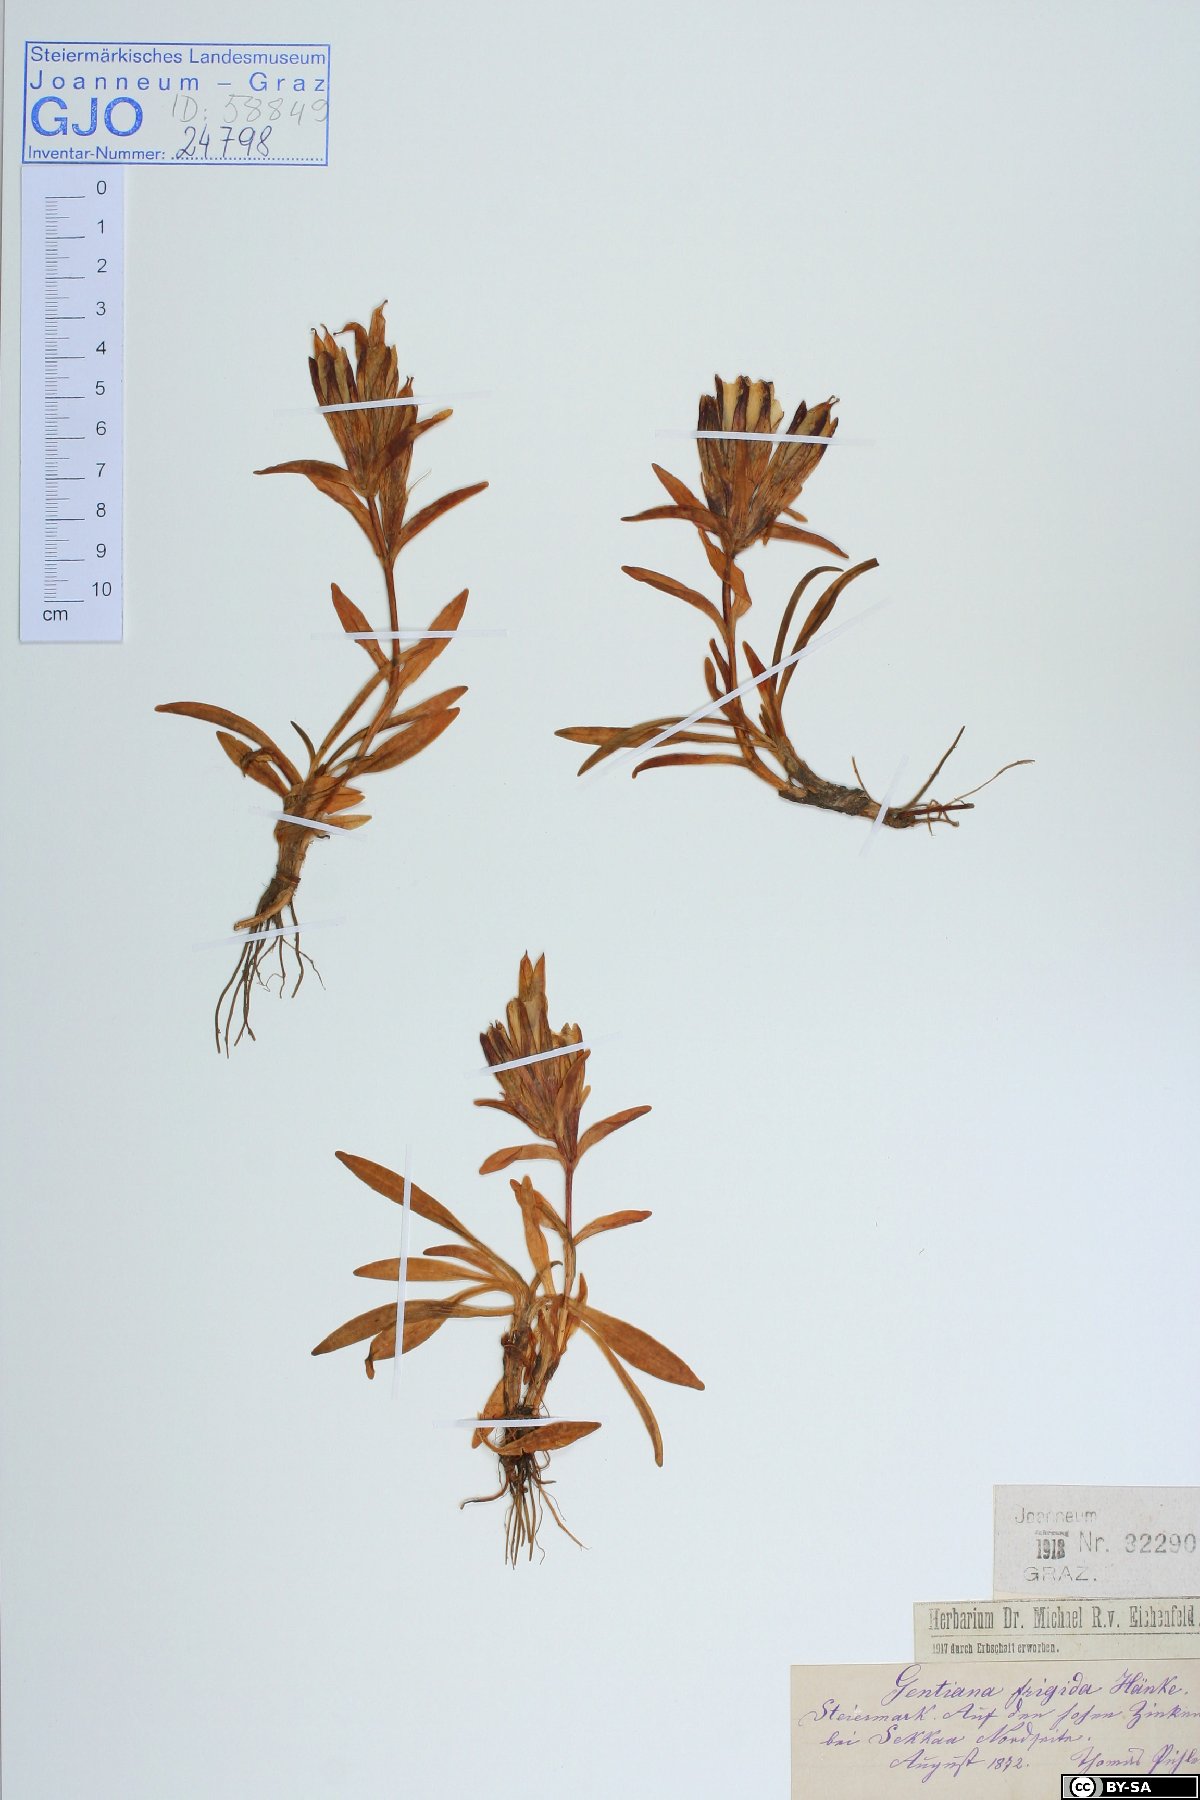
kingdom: Plantae
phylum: Tracheophyta
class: Magnoliopsida
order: Gentianales
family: Gentianaceae
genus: Gentiana
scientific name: Gentiana frigida
